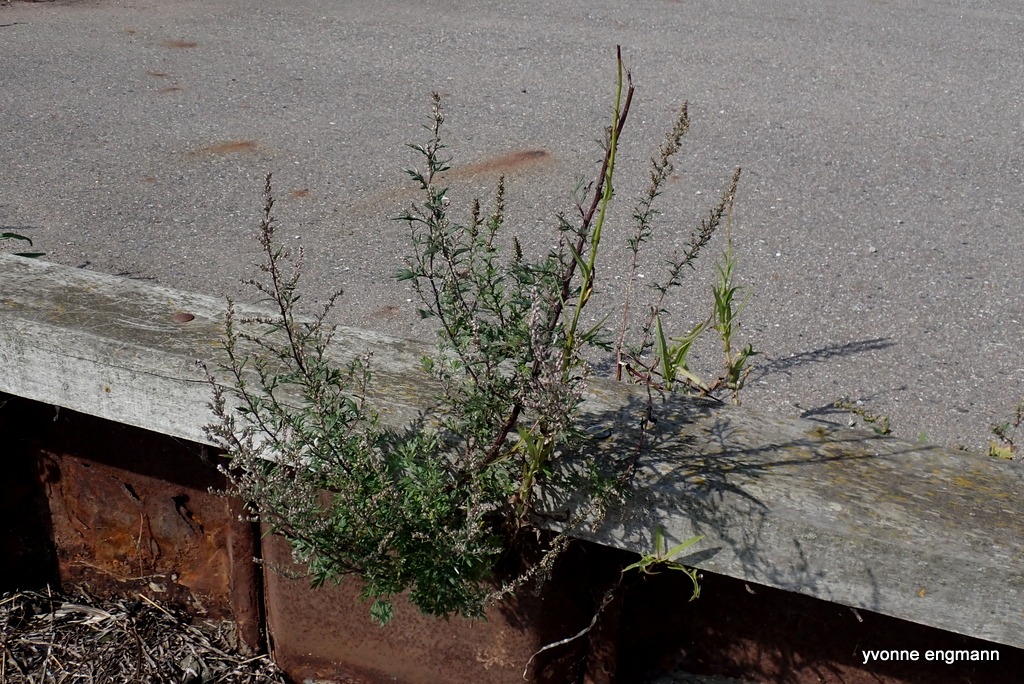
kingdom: Plantae
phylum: Tracheophyta
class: Magnoliopsida
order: Asterales
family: Asteraceae
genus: Artemisia
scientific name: Artemisia vulgaris
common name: Grå-bynke
